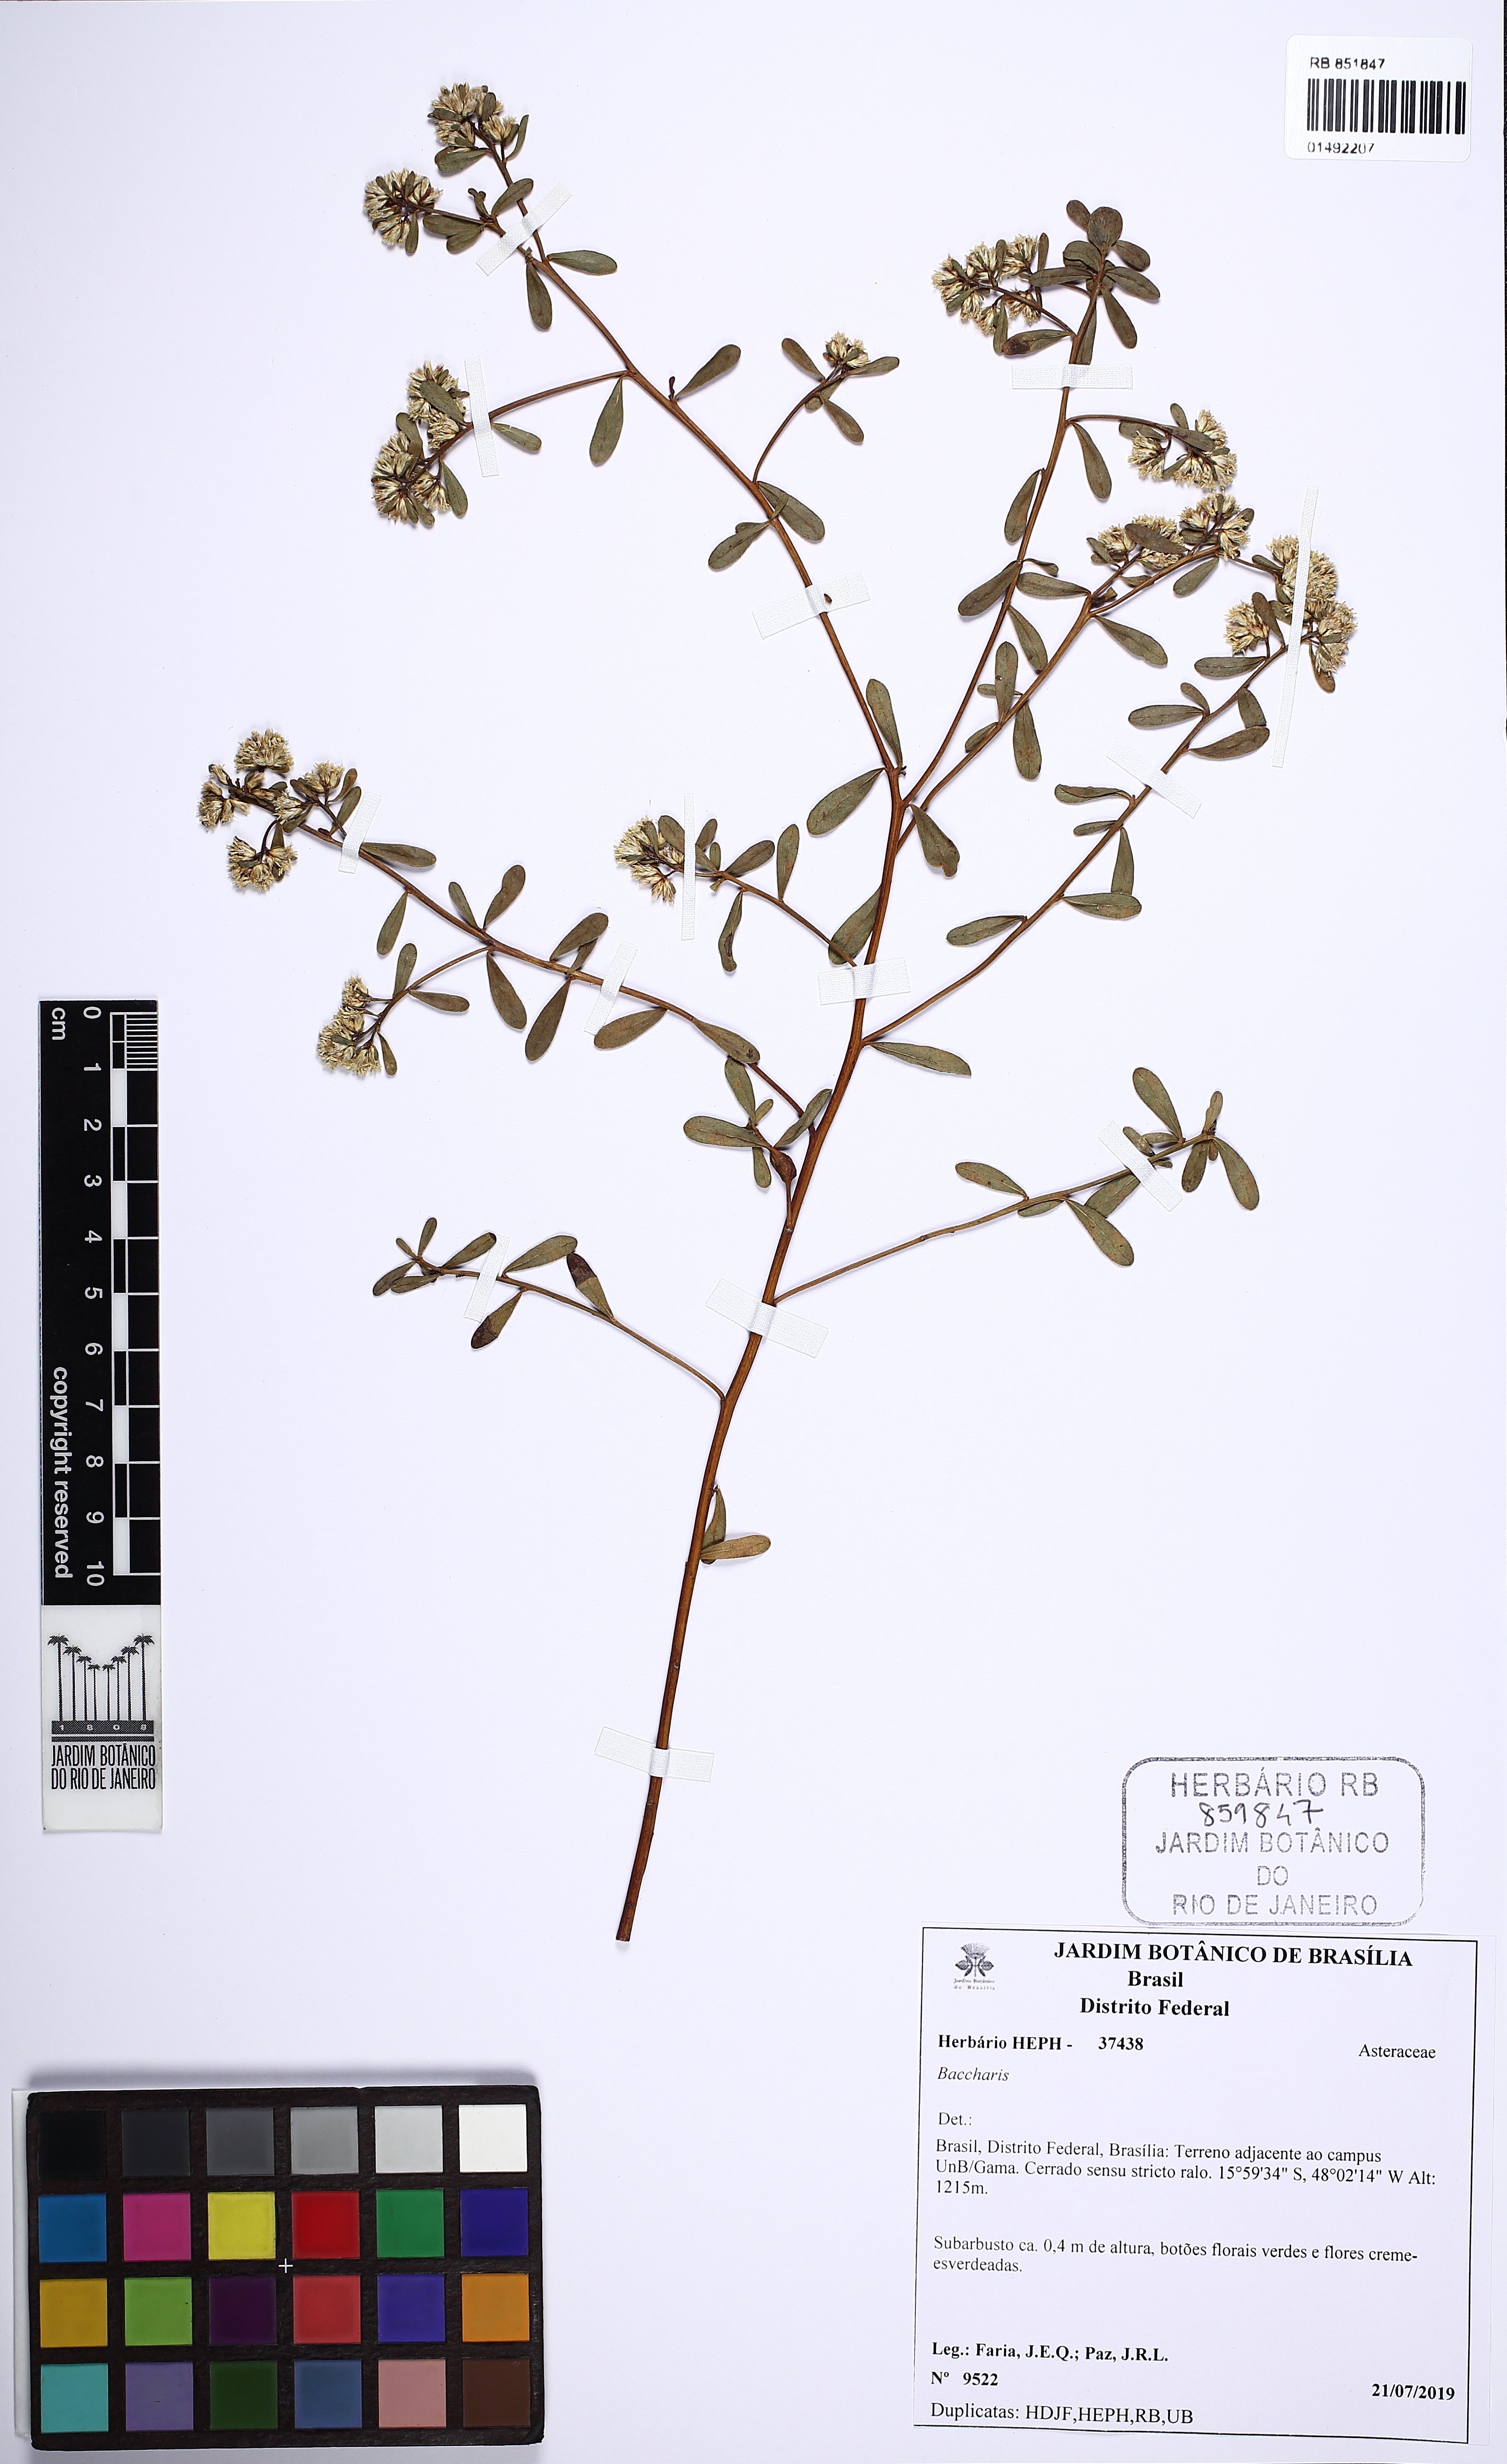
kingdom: Plantae
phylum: Tracheophyta
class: Magnoliopsida
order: Asterales
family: Asteraceae
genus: Baccharis
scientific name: Baccharis
